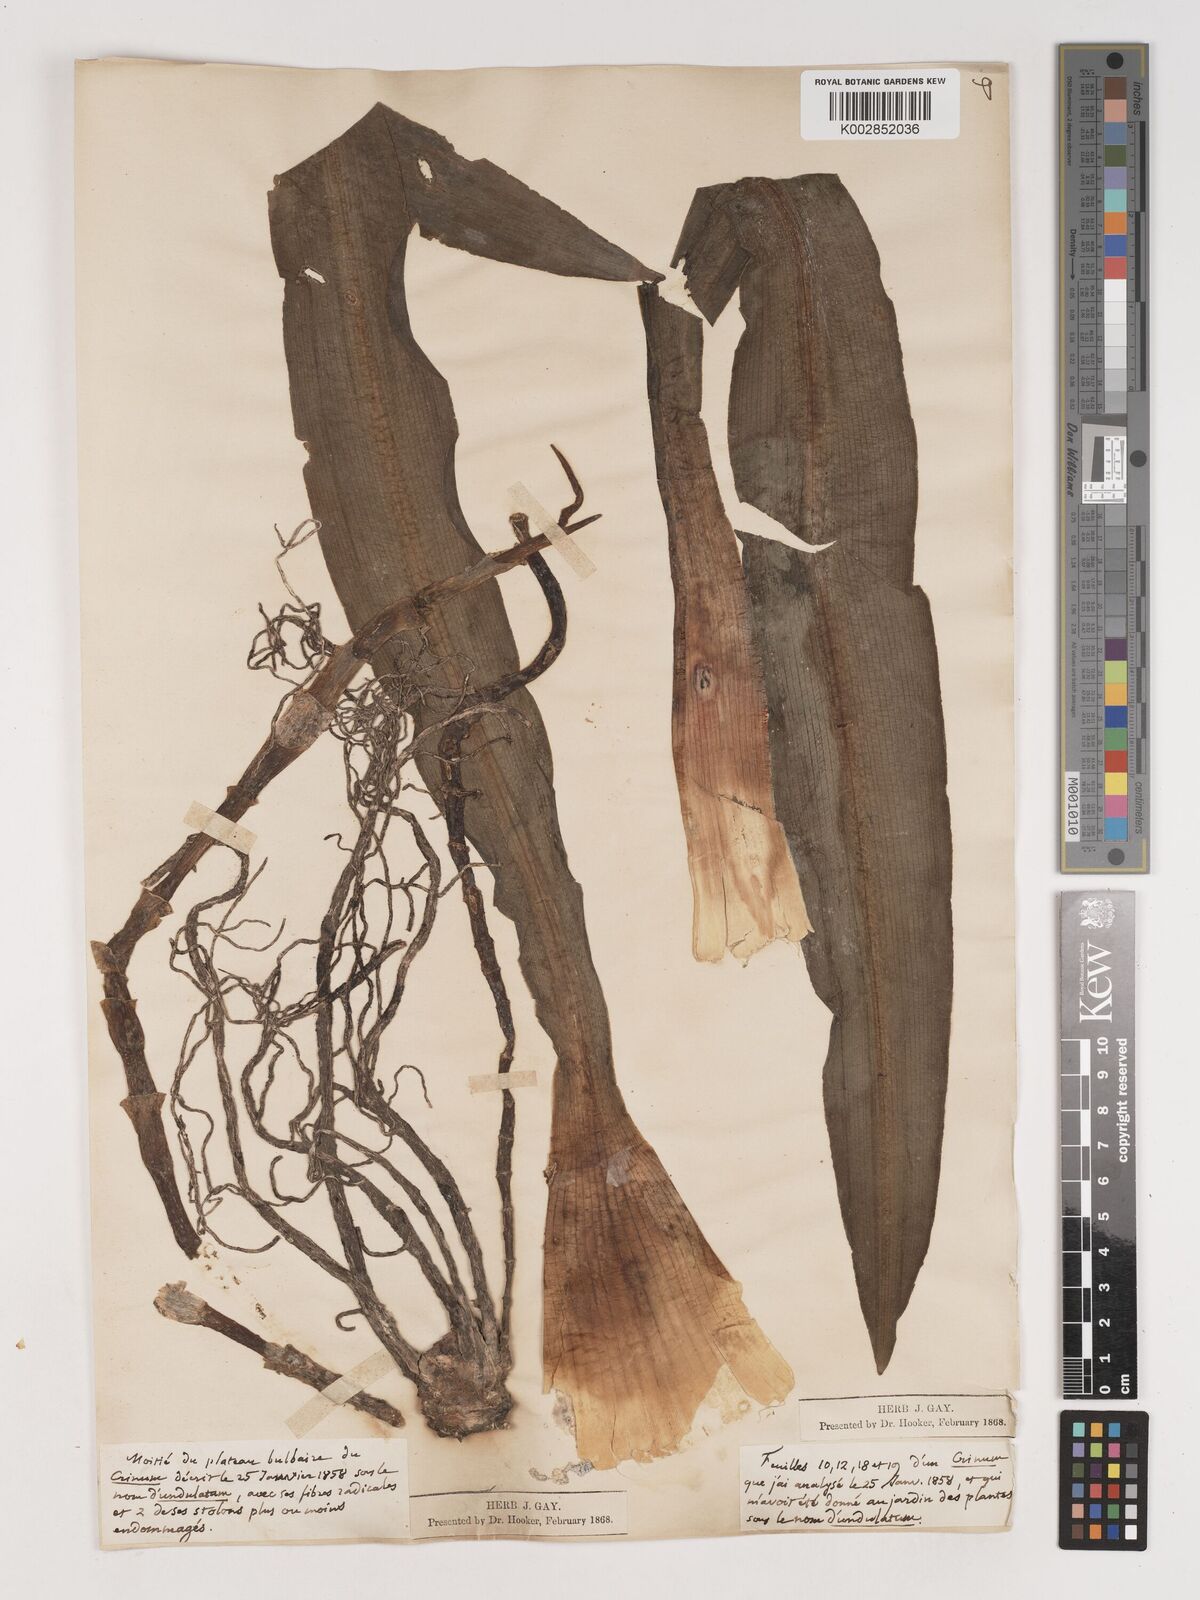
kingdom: Plantae
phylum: Tracheophyta
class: Liliopsida
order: Asparagales
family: Amaryllidaceae
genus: Crinum
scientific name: Crinum undulatum
